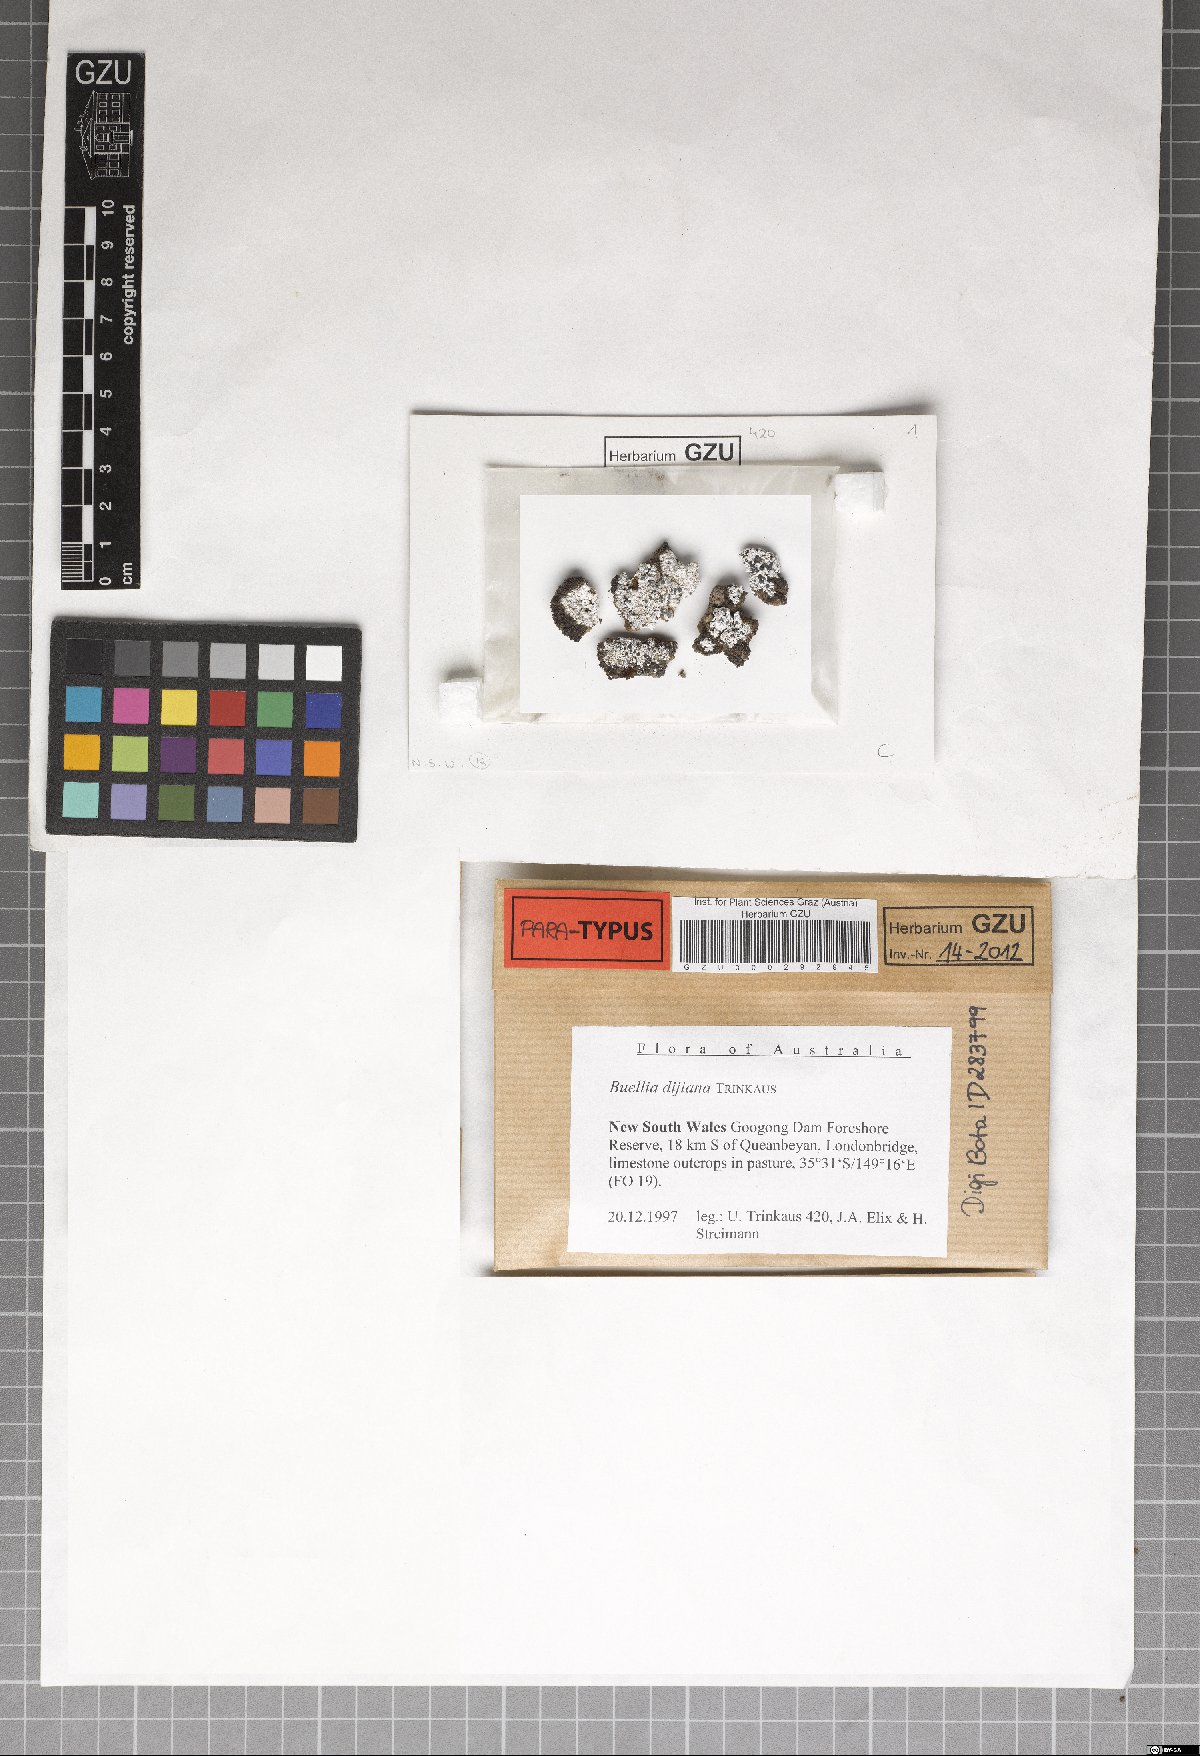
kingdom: Fungi
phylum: Ascomycota
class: Lecanoromycetes
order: Caliciales
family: Caliciaceae
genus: Buellia
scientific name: Buellia dayboroana
